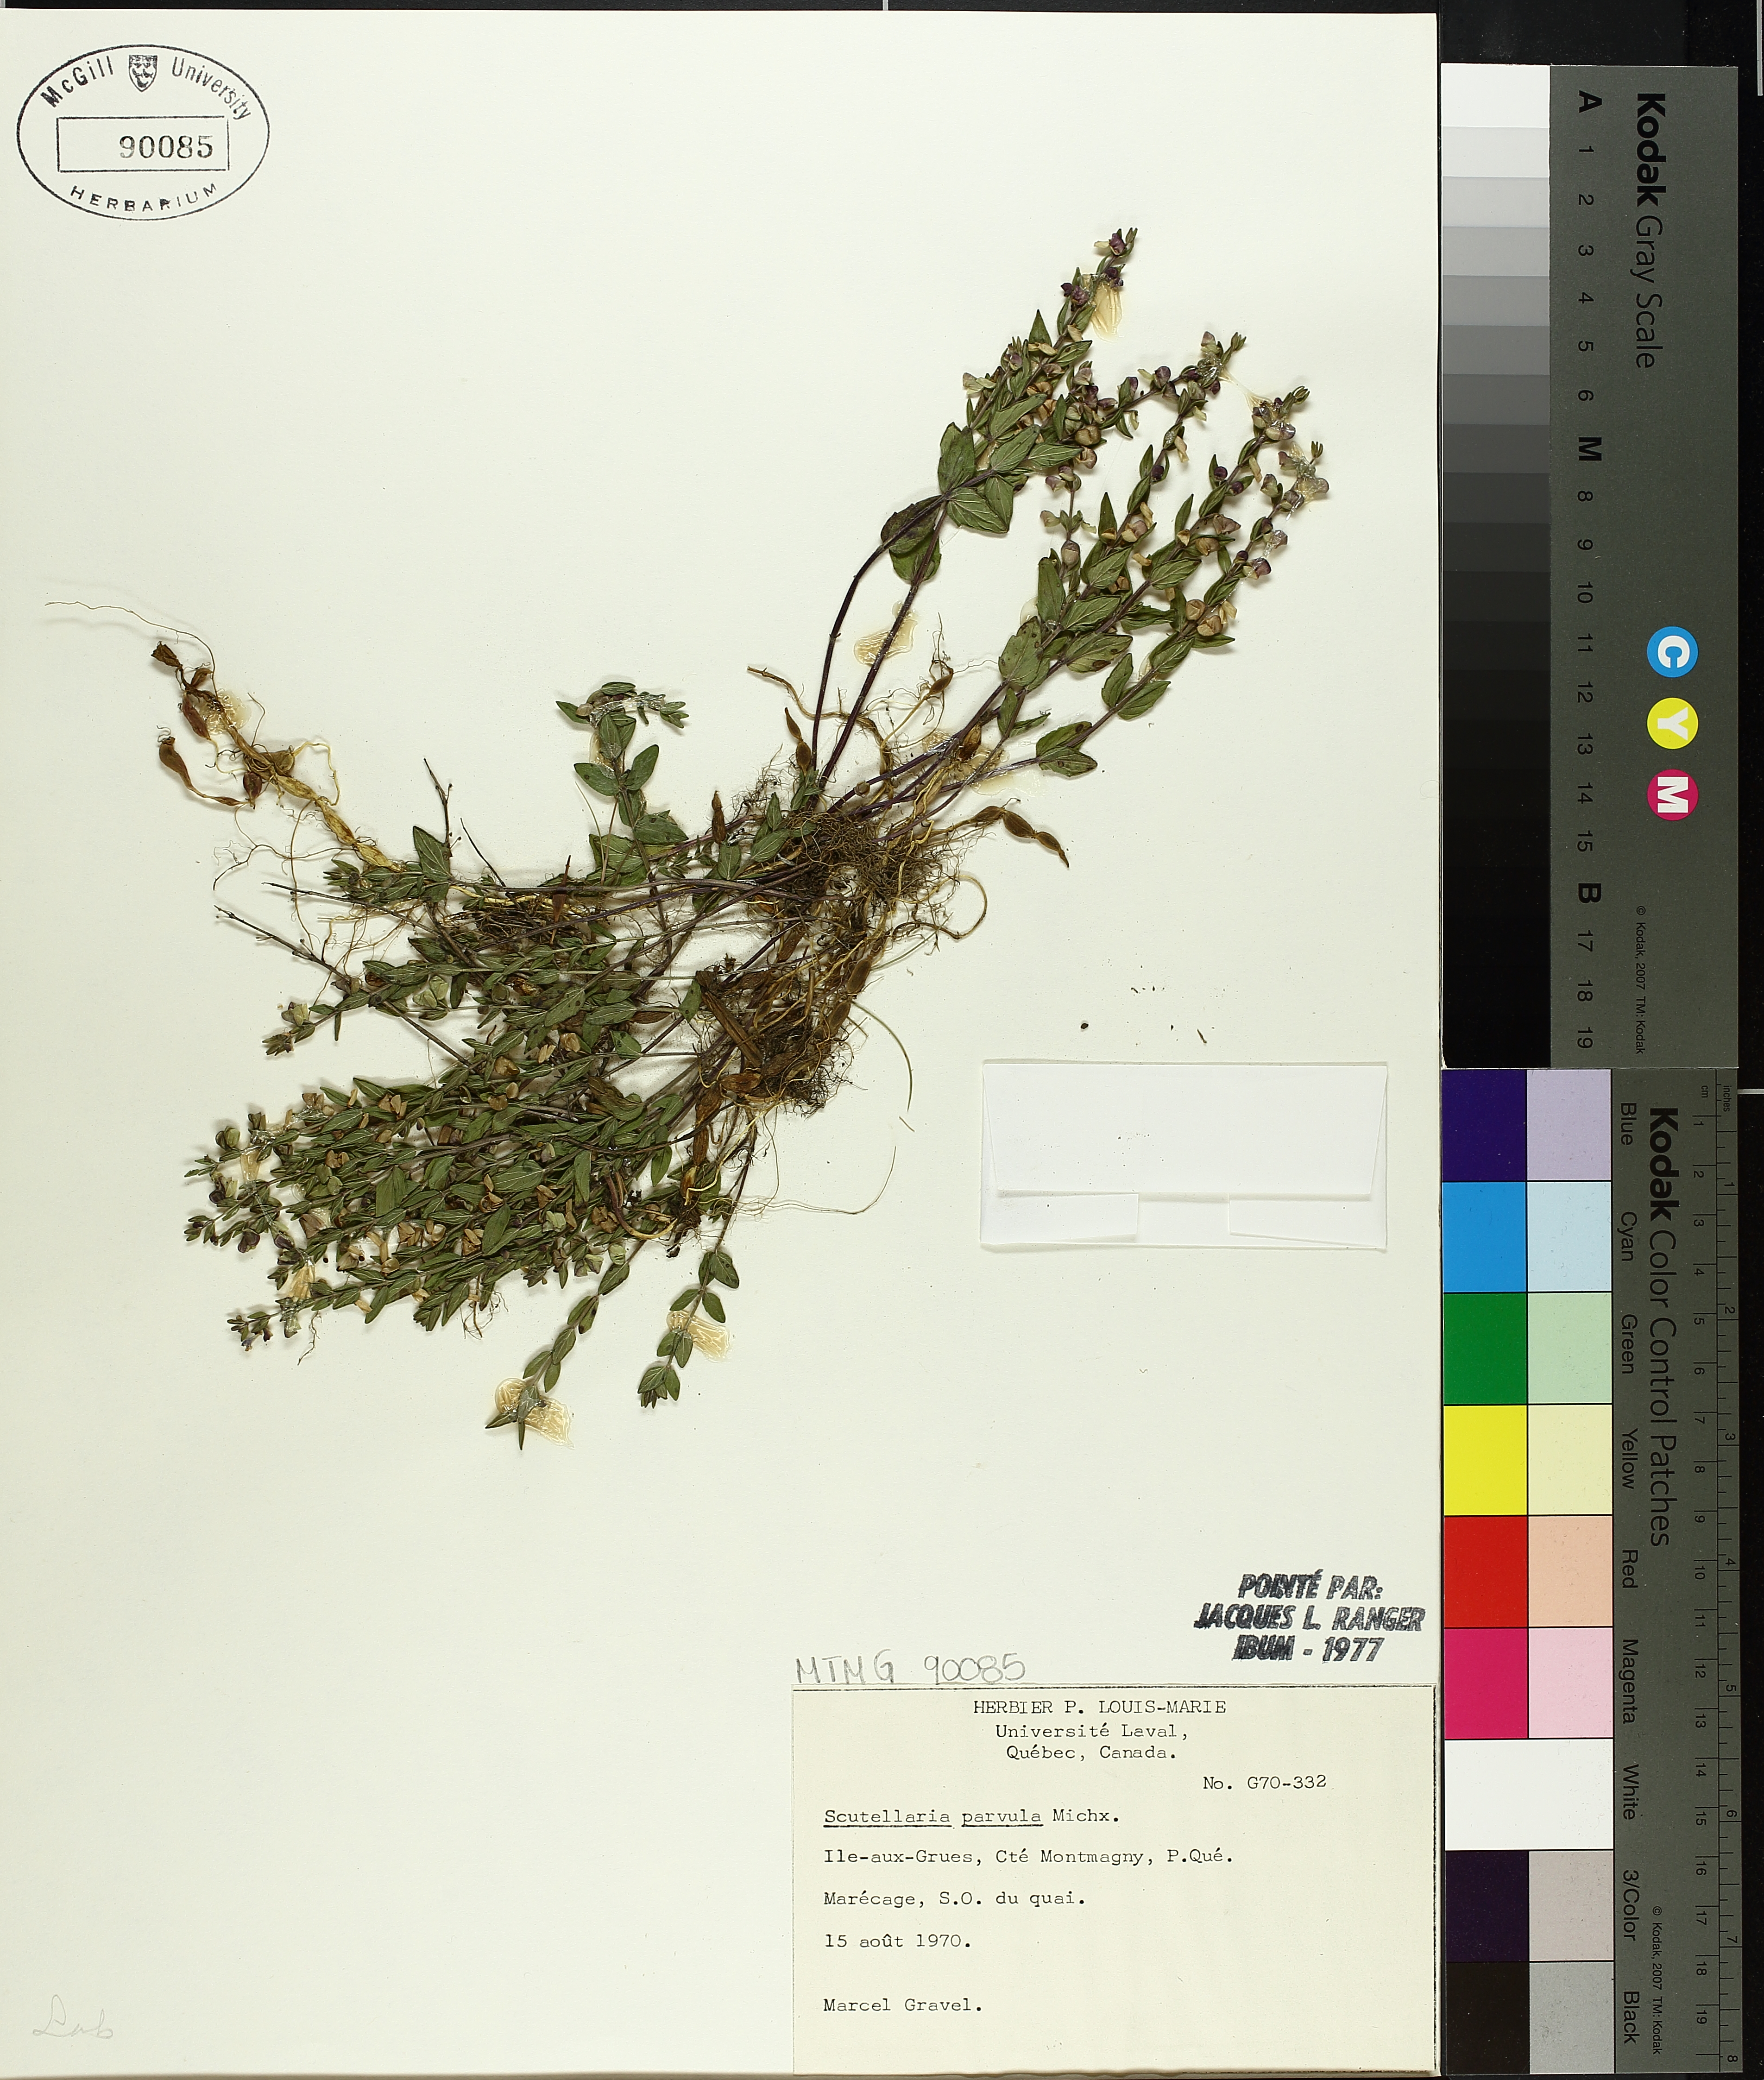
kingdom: Plantae
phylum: Tracheophyta
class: Magnoliopsida
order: Lamiales
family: Lamiaceae
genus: Scutellaria
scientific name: Scutellaria parvula
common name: Little scullcap
